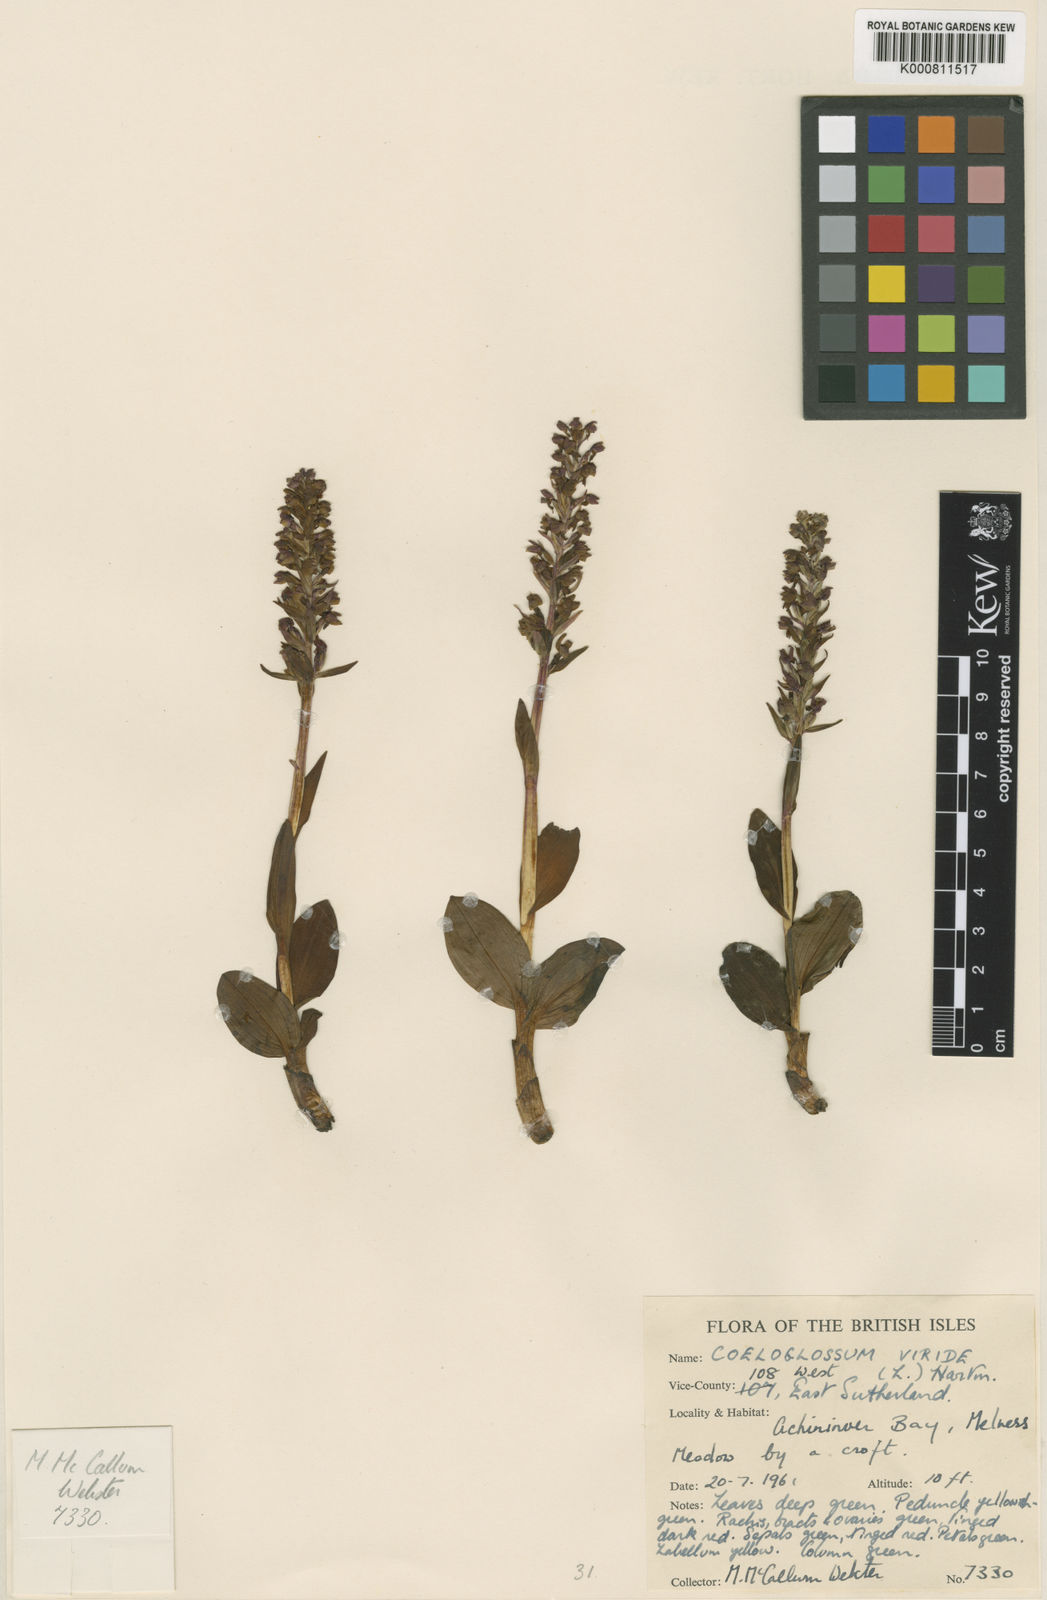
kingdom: Plantae
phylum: Tracheophyta
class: Liliopsida
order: Asparagales
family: Orchidaceae
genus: Dactylorhiza
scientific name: Dactylorhiza viridis
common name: Longbract frog orchid
